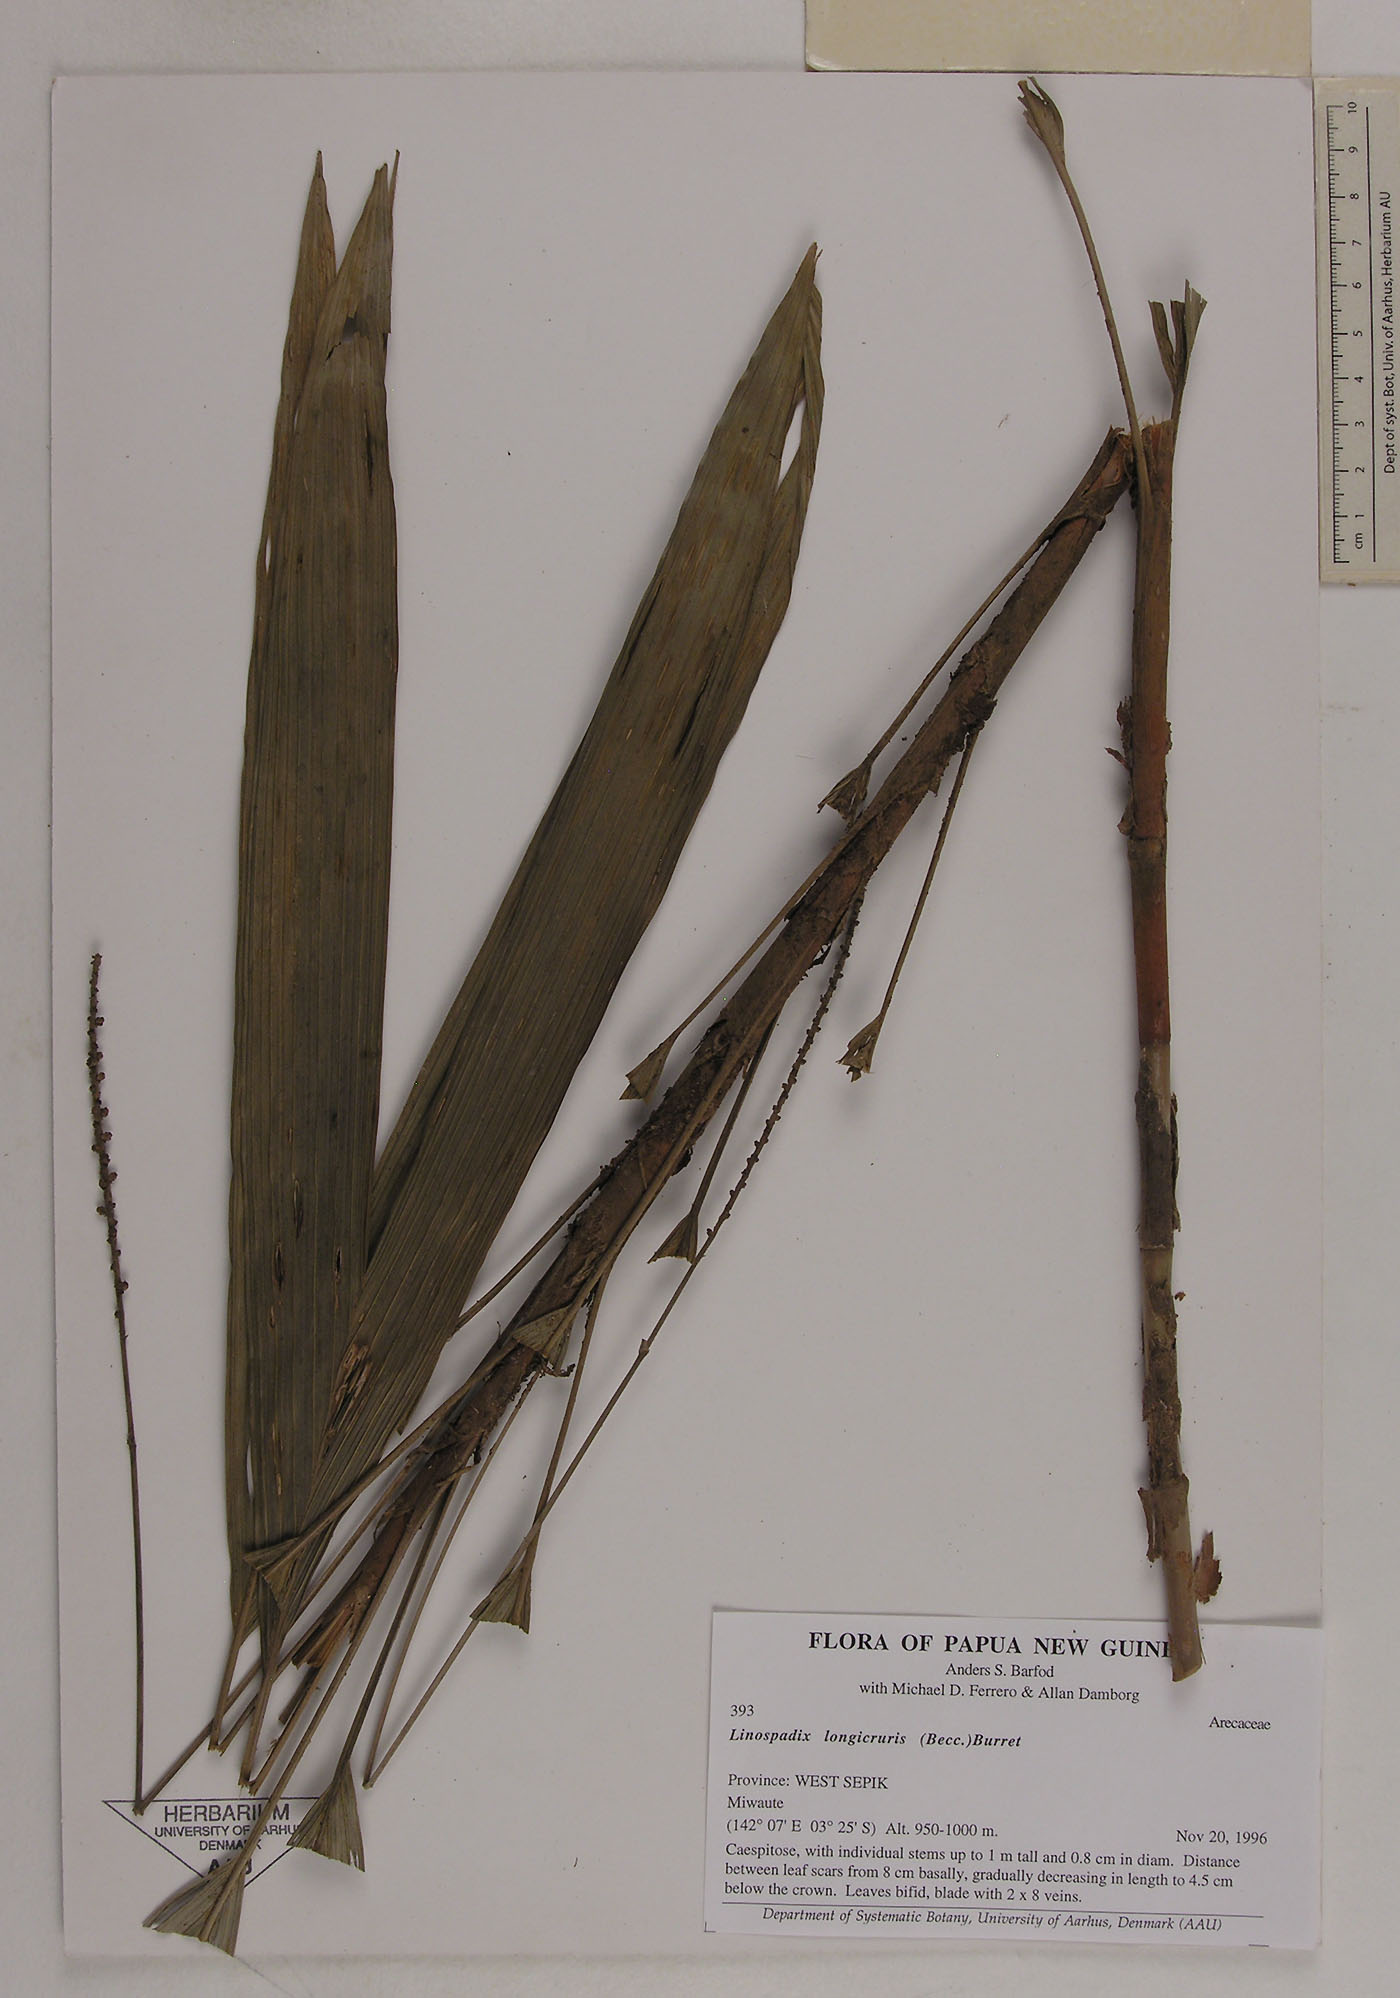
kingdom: Plantae
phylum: Tracheophyta
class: Liliopsida
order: Arecales
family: Arecaceae
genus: Linospadix
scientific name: Linospadix albertisianus
